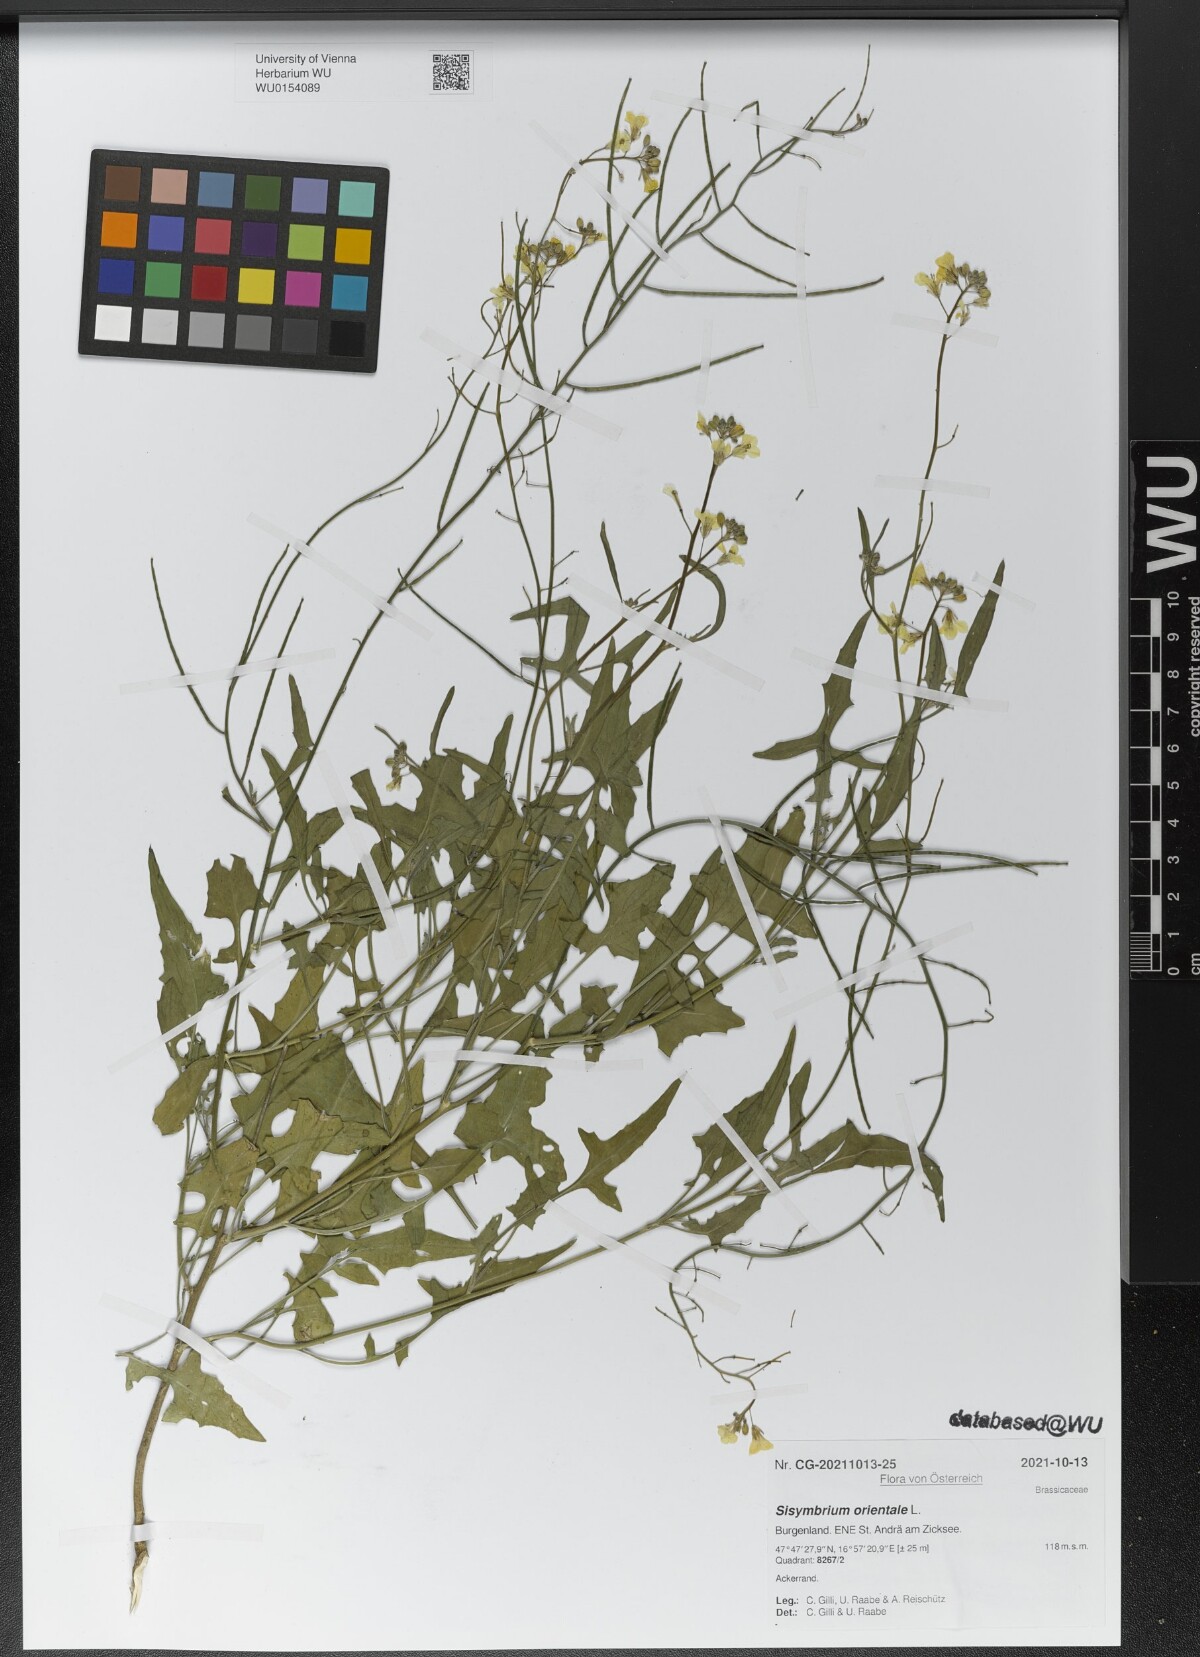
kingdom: Plantae
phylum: Tracheophyta
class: Magnoliopsida
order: Brassicales
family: Brassicaceae
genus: Sisymbrium
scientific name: Sisymbrium orientale
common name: Eastern rocket
